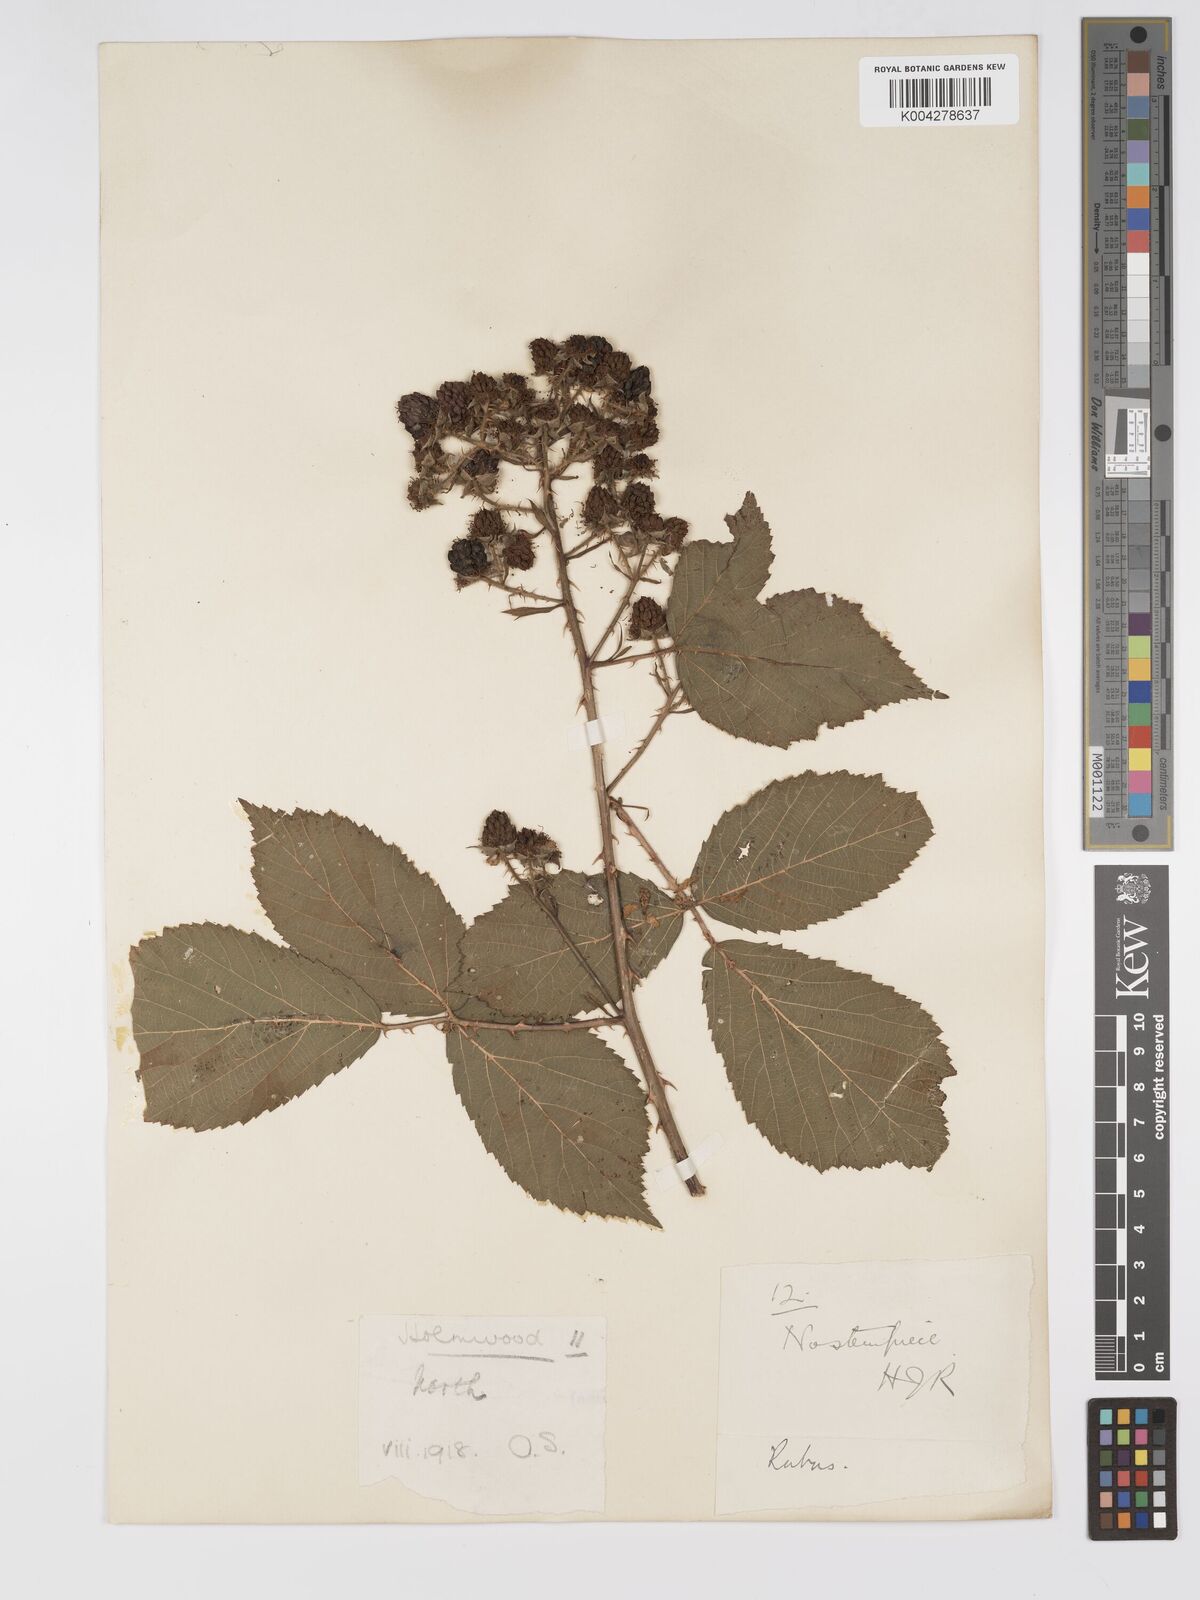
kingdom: Plantae
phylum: Tracheophyta
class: Magnoliopsida
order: Rosales
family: Rosaceae
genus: Rubus
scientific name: Rubus ahenifolius
